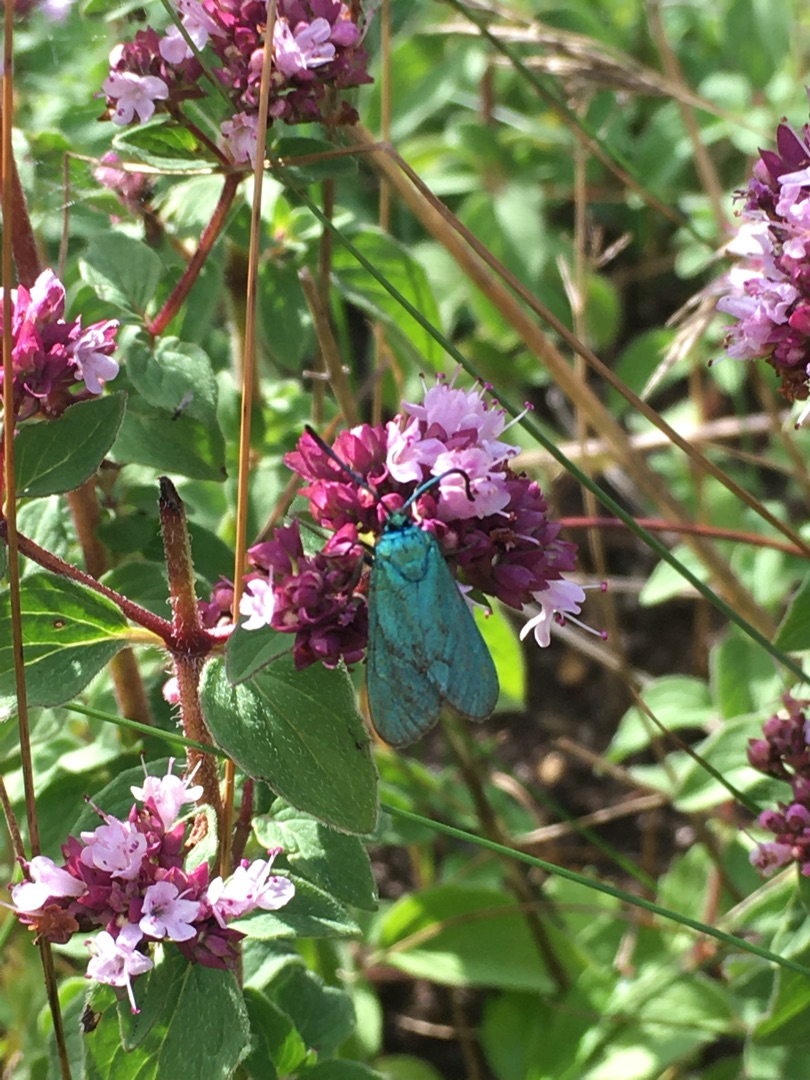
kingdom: Animalia
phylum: Arthropoda
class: Insecta
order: Lepidoptera
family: Zygaenidae
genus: Adscita
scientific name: Adscita statices
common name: Metalvinge
